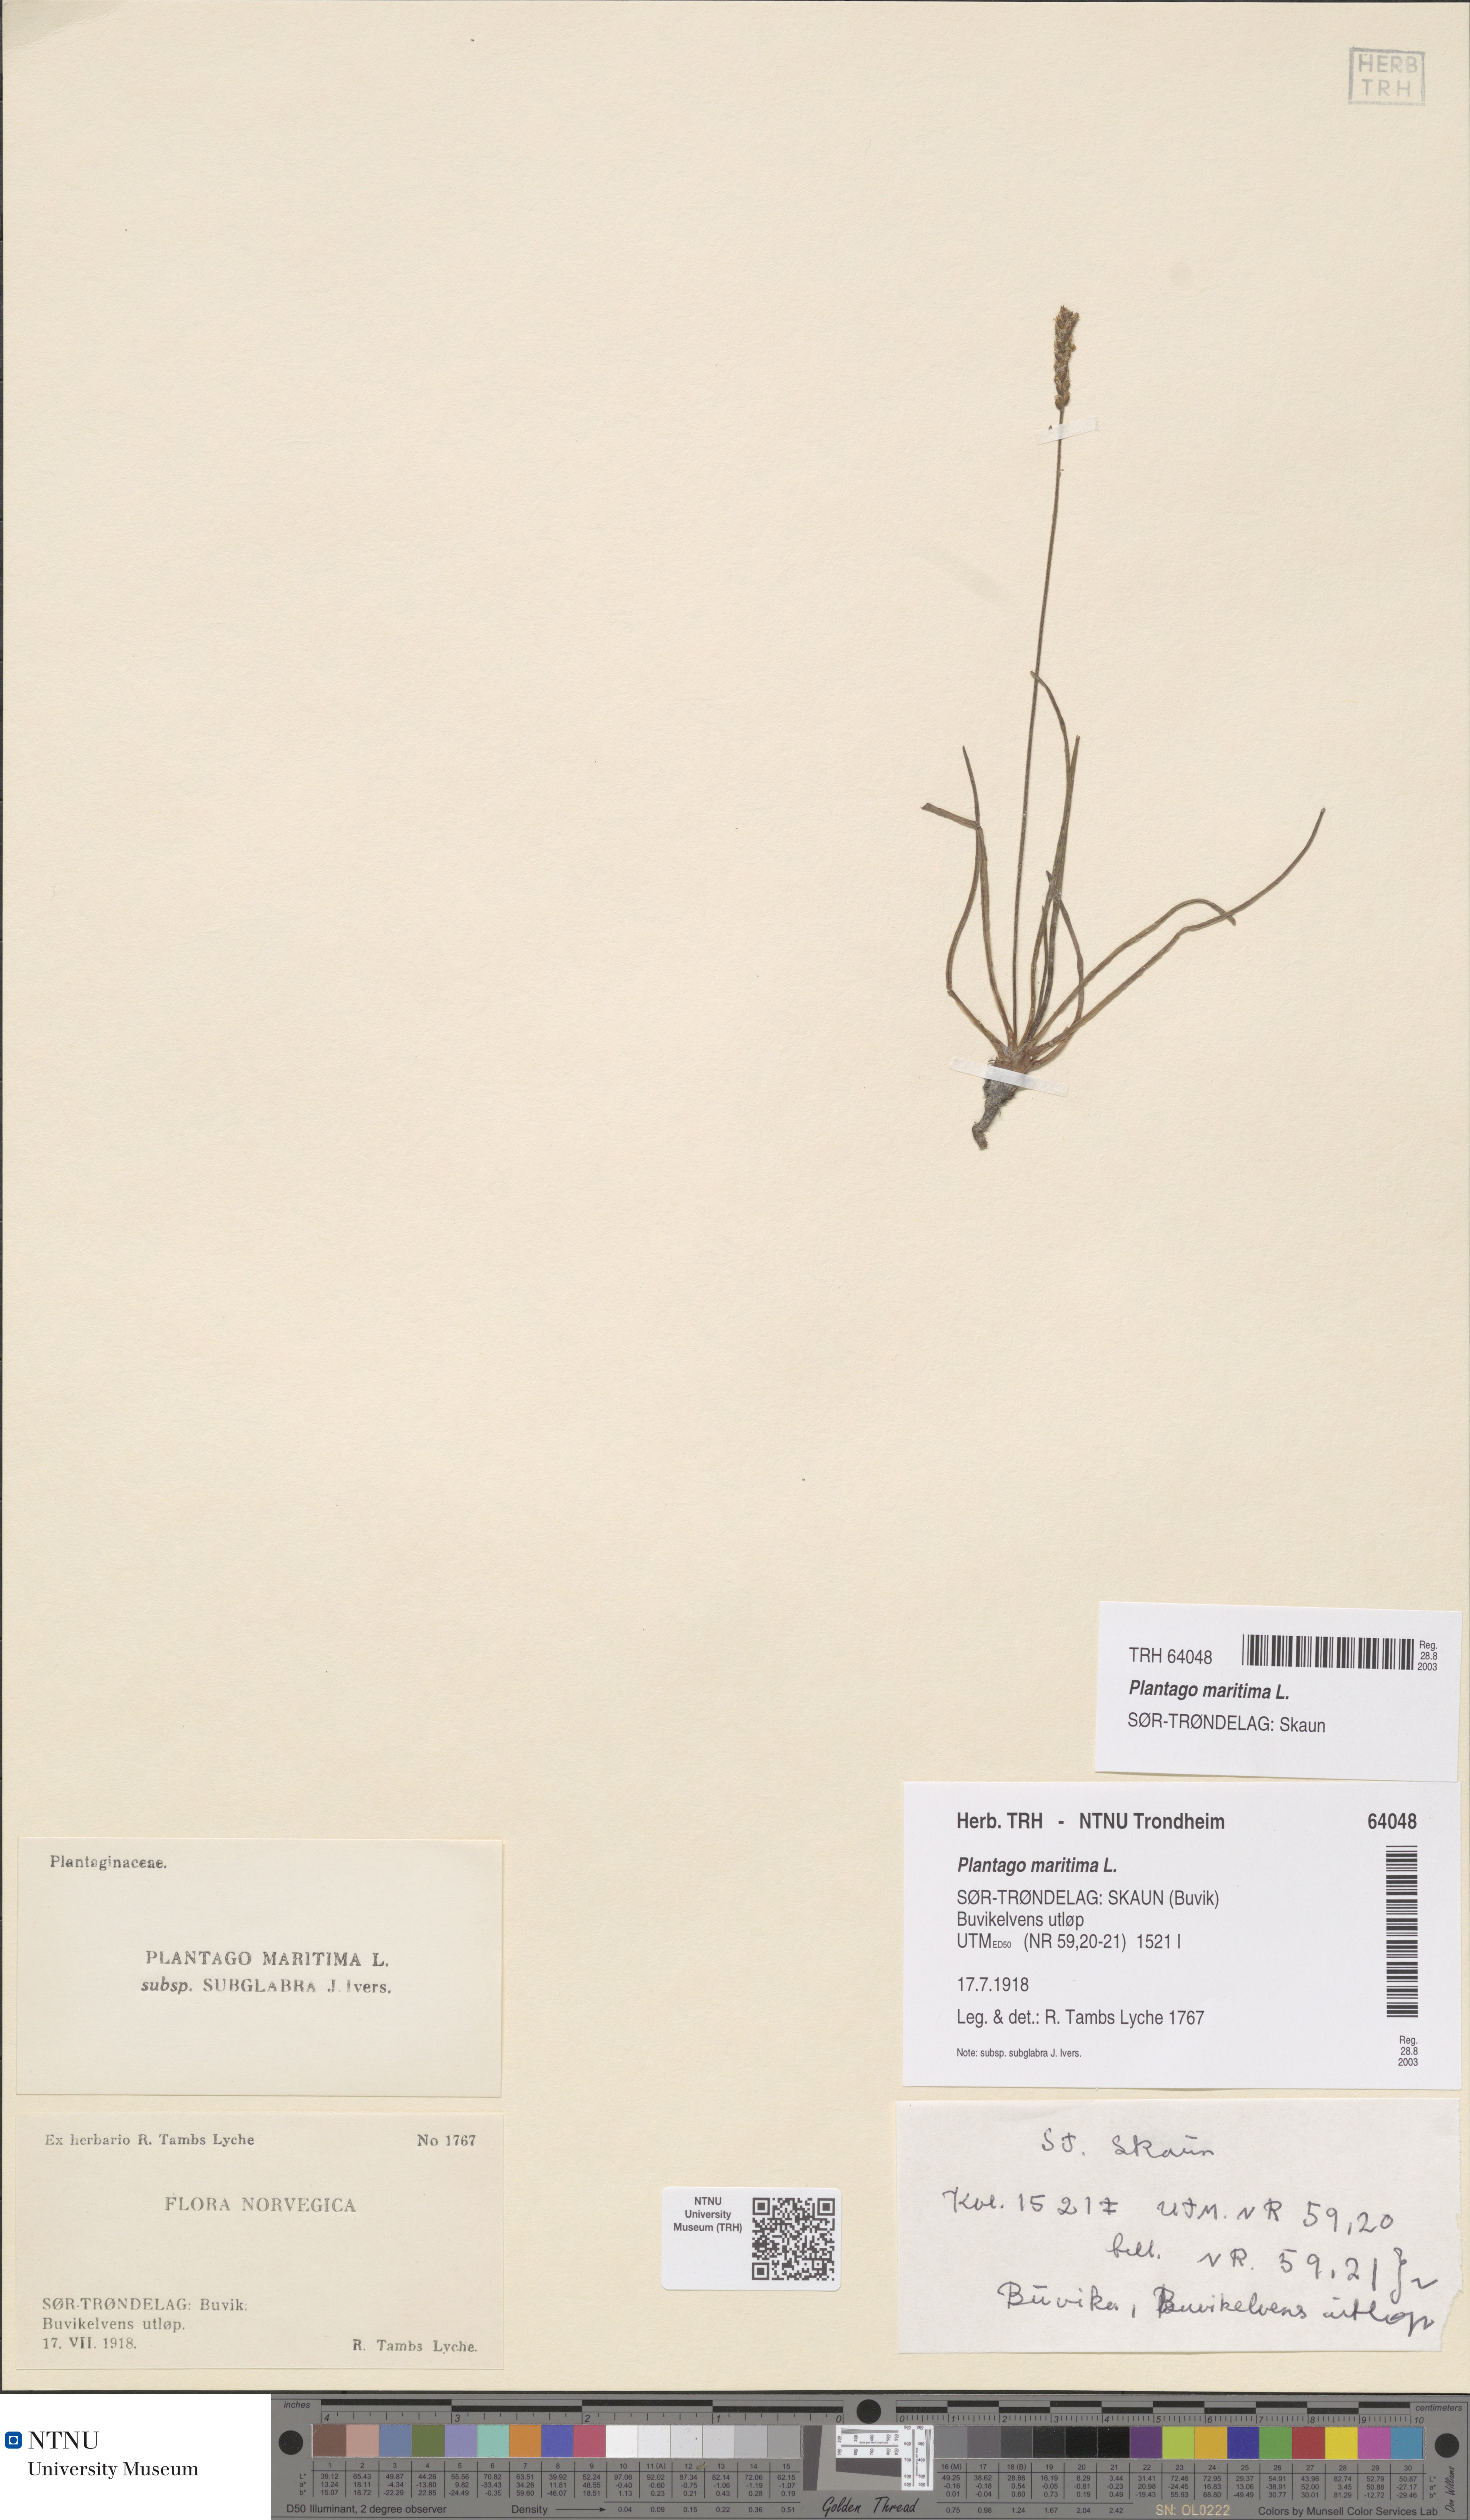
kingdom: Plantae
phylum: Tracheophyta
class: Magnoliopsida
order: Lamiales
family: Plantaginaceae
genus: Plantago
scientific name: Plantago maritima
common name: Sea plantain
